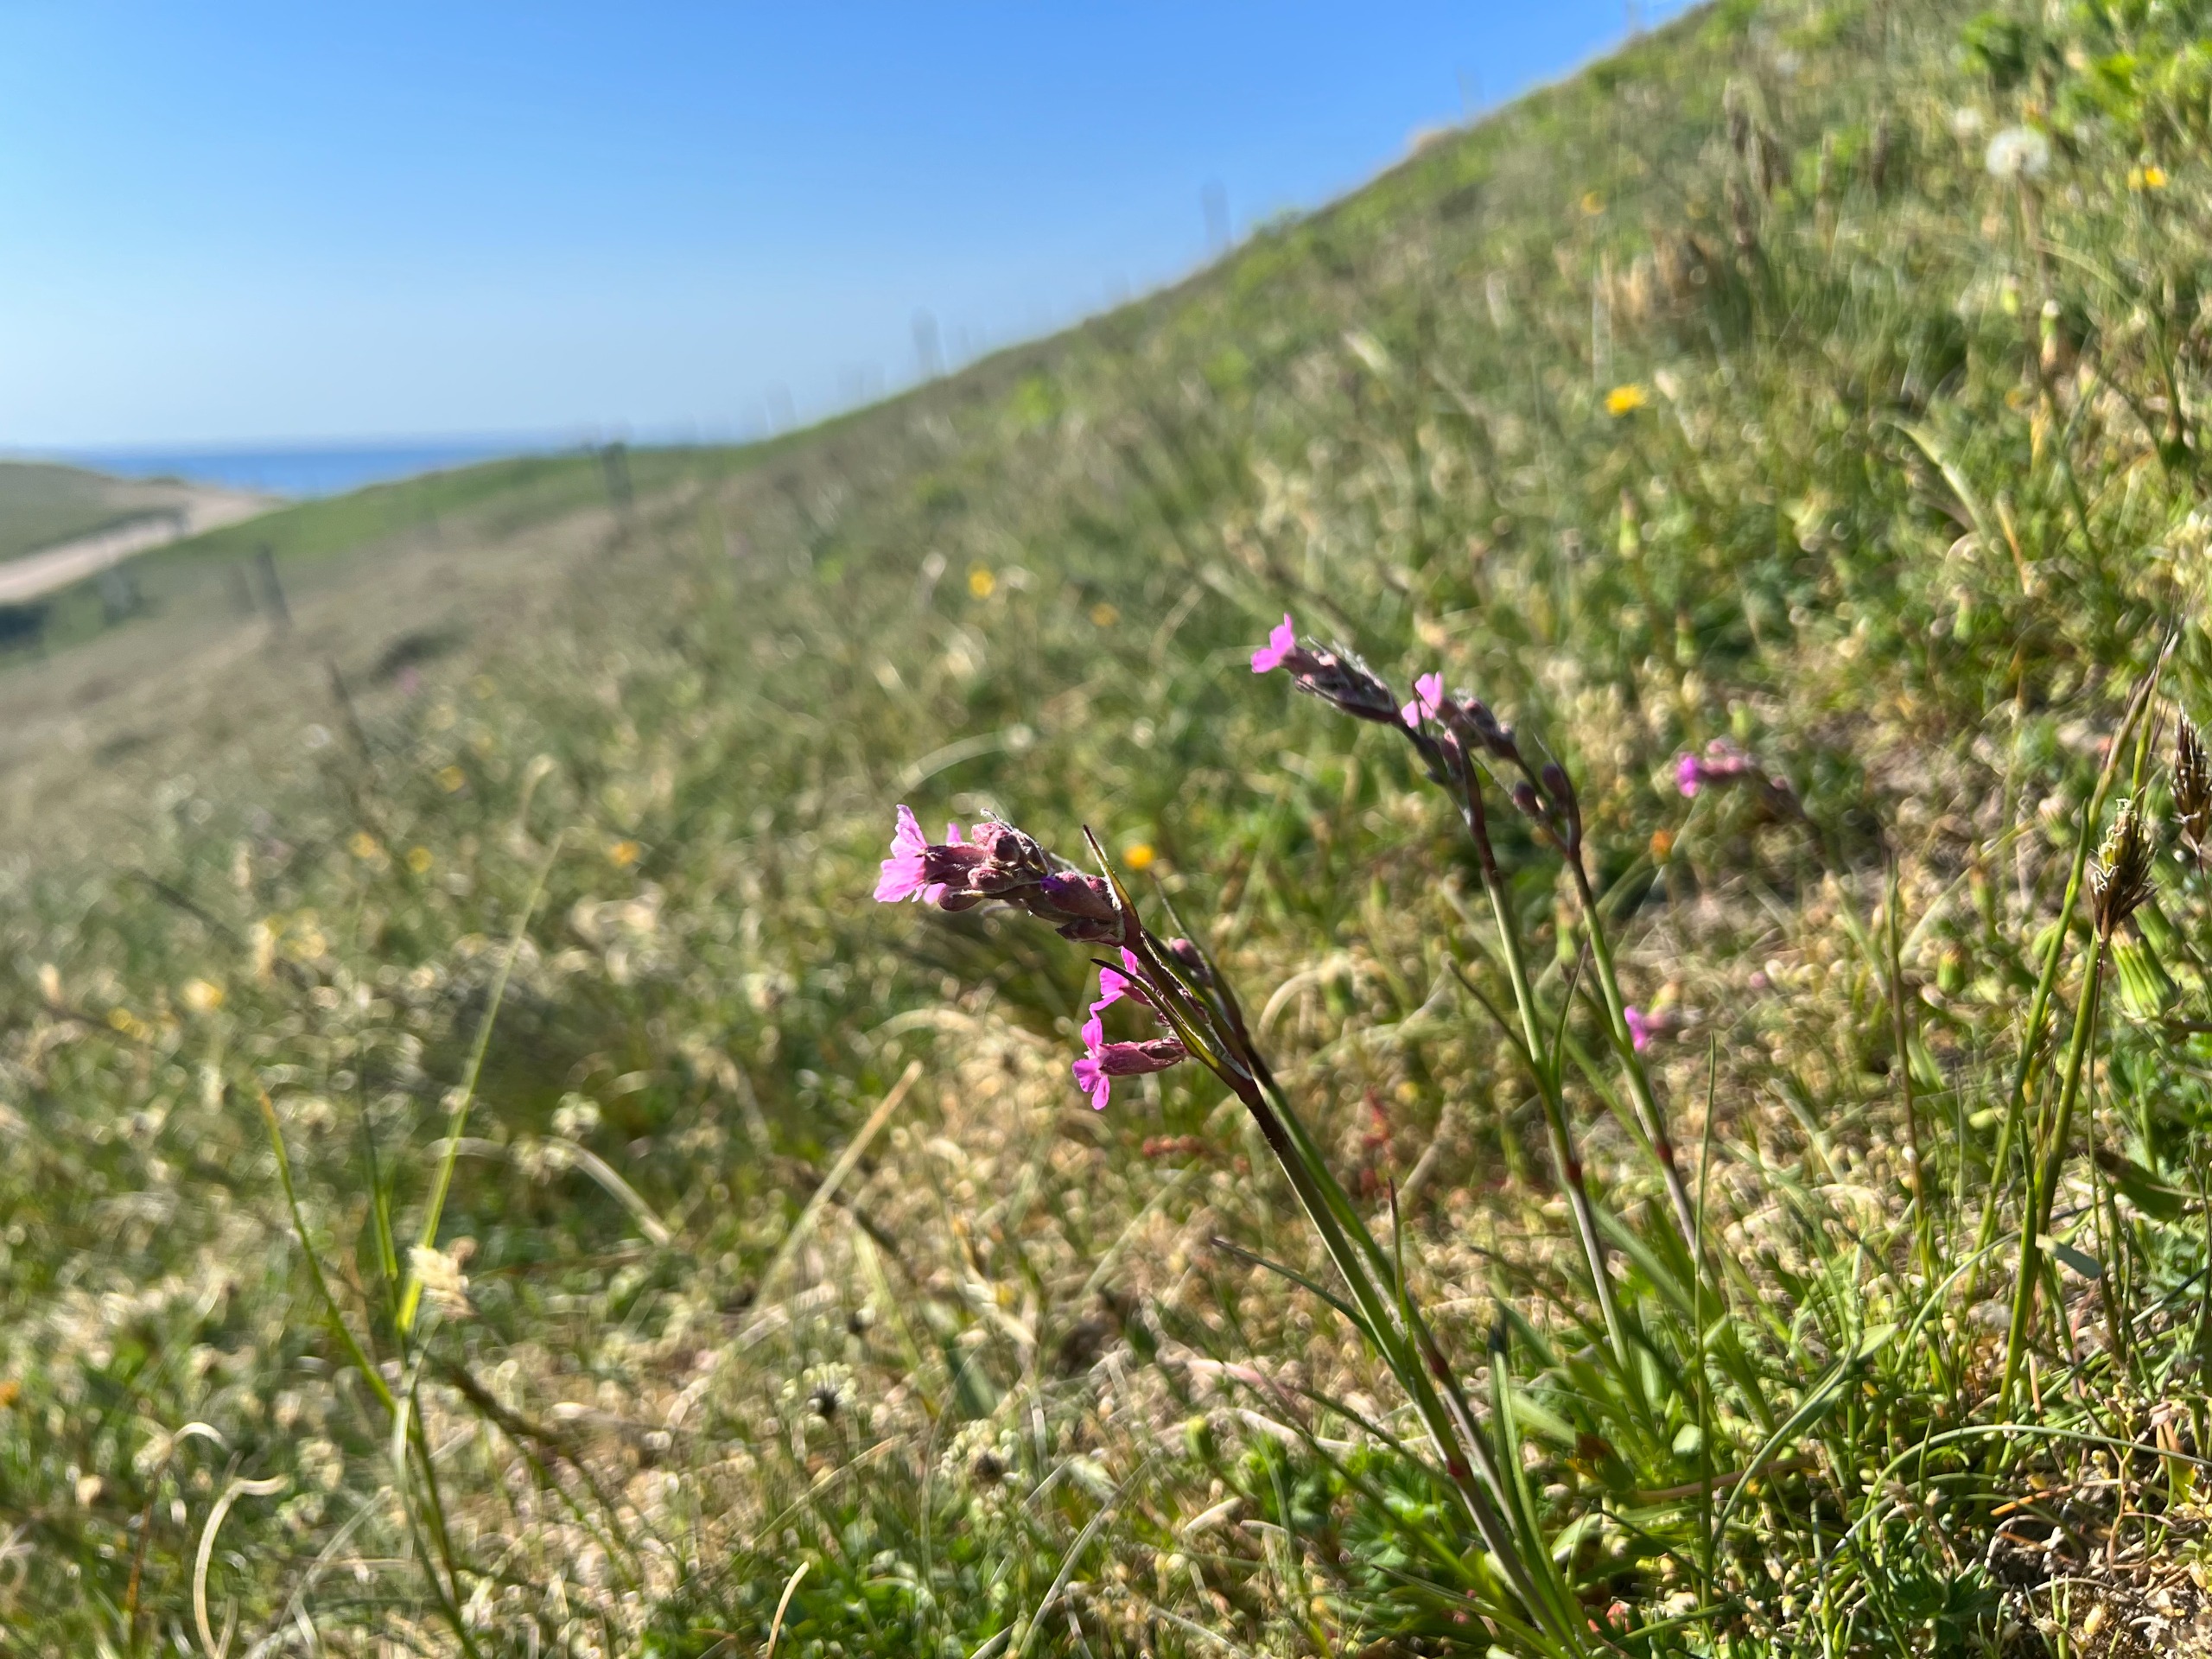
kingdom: Plantae
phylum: Tracheophyta
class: Magnoliopsida
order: Caryophyllales
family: Caryophyllaceae
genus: Viscaria
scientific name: Viscaria vulgaris
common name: Tjærenellike
